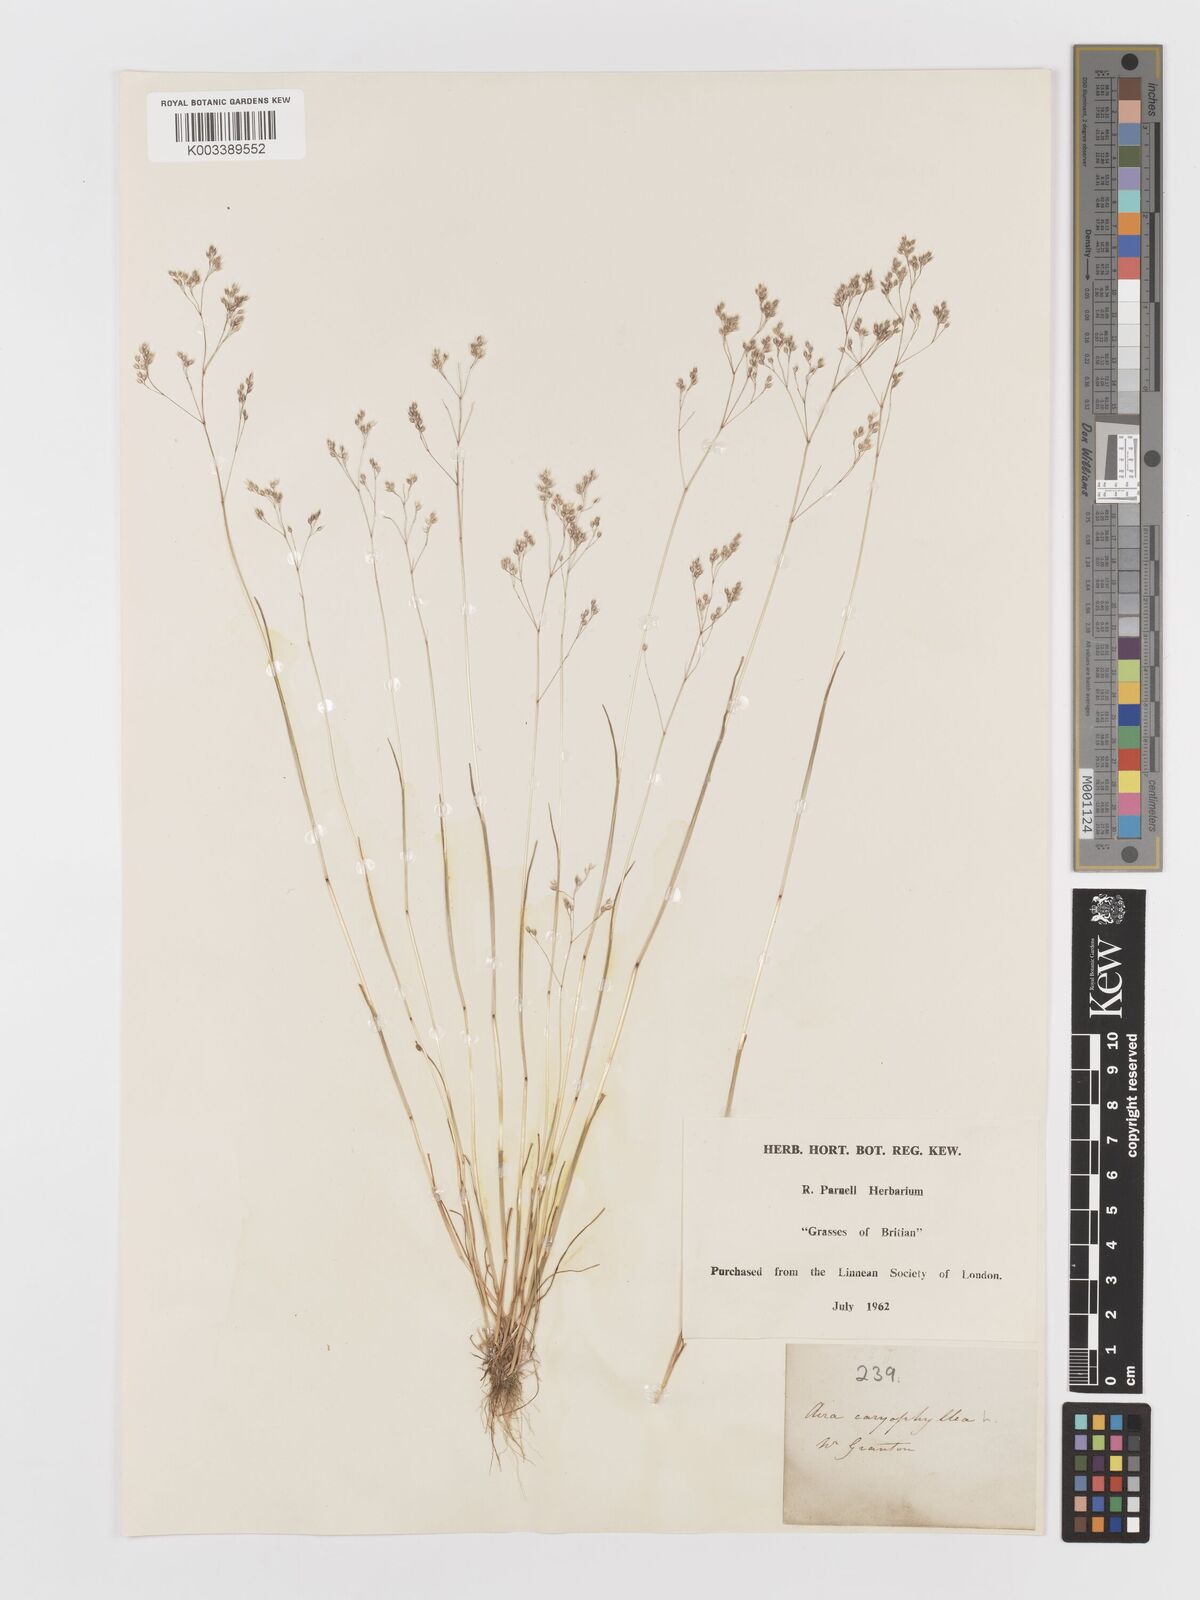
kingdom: Plantae
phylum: Tracheophyta
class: Liliopsida
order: Poales
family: Poaceae
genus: Aira
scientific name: Aira caryophyllea
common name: Silver hairgrass
